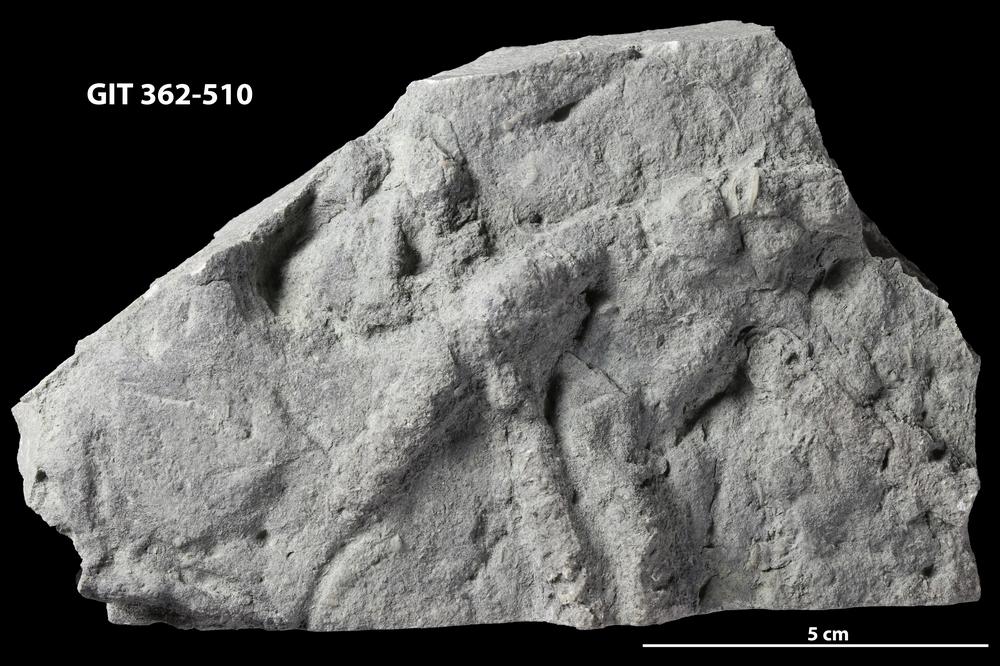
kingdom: Animalia
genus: Schaubcylindrichnus
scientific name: Schaubcylindrichnus
